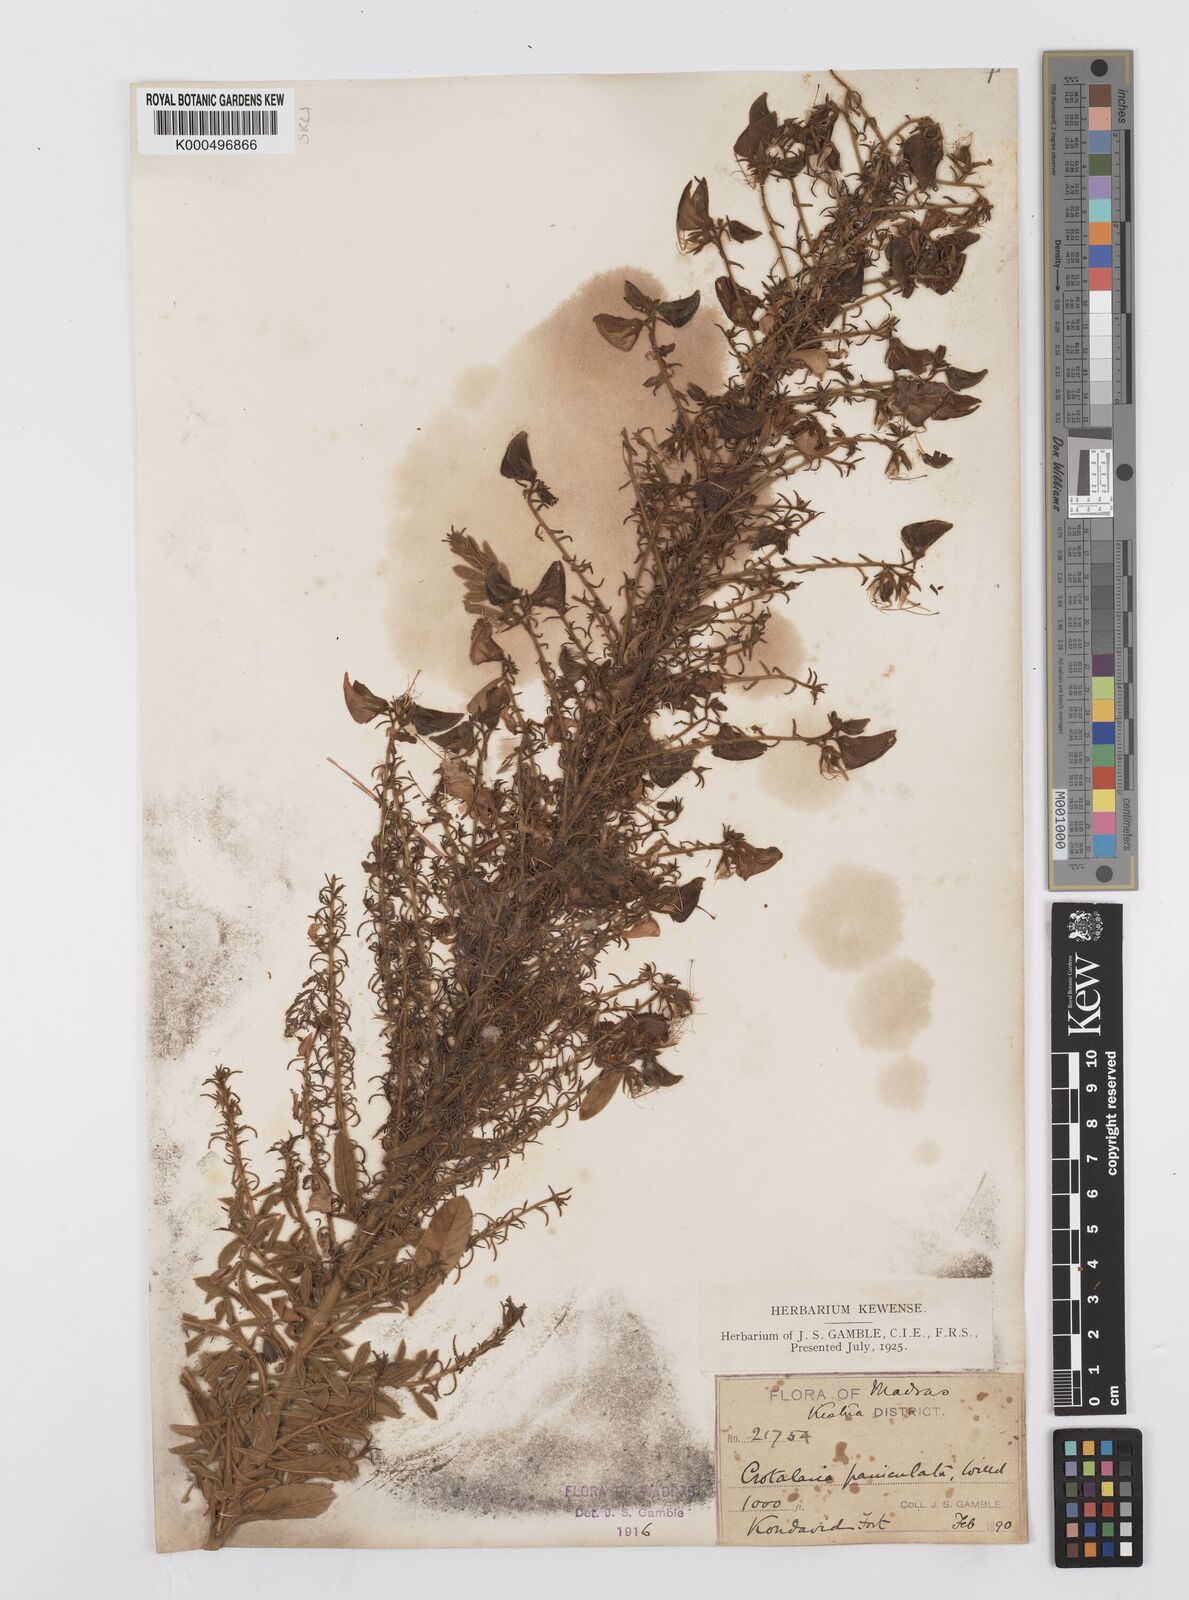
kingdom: Plantae
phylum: Tracheophyta
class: Magnoliopsida
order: Fabales
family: Fabaceae
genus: Crotalaria
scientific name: Crotalaria paniculata
